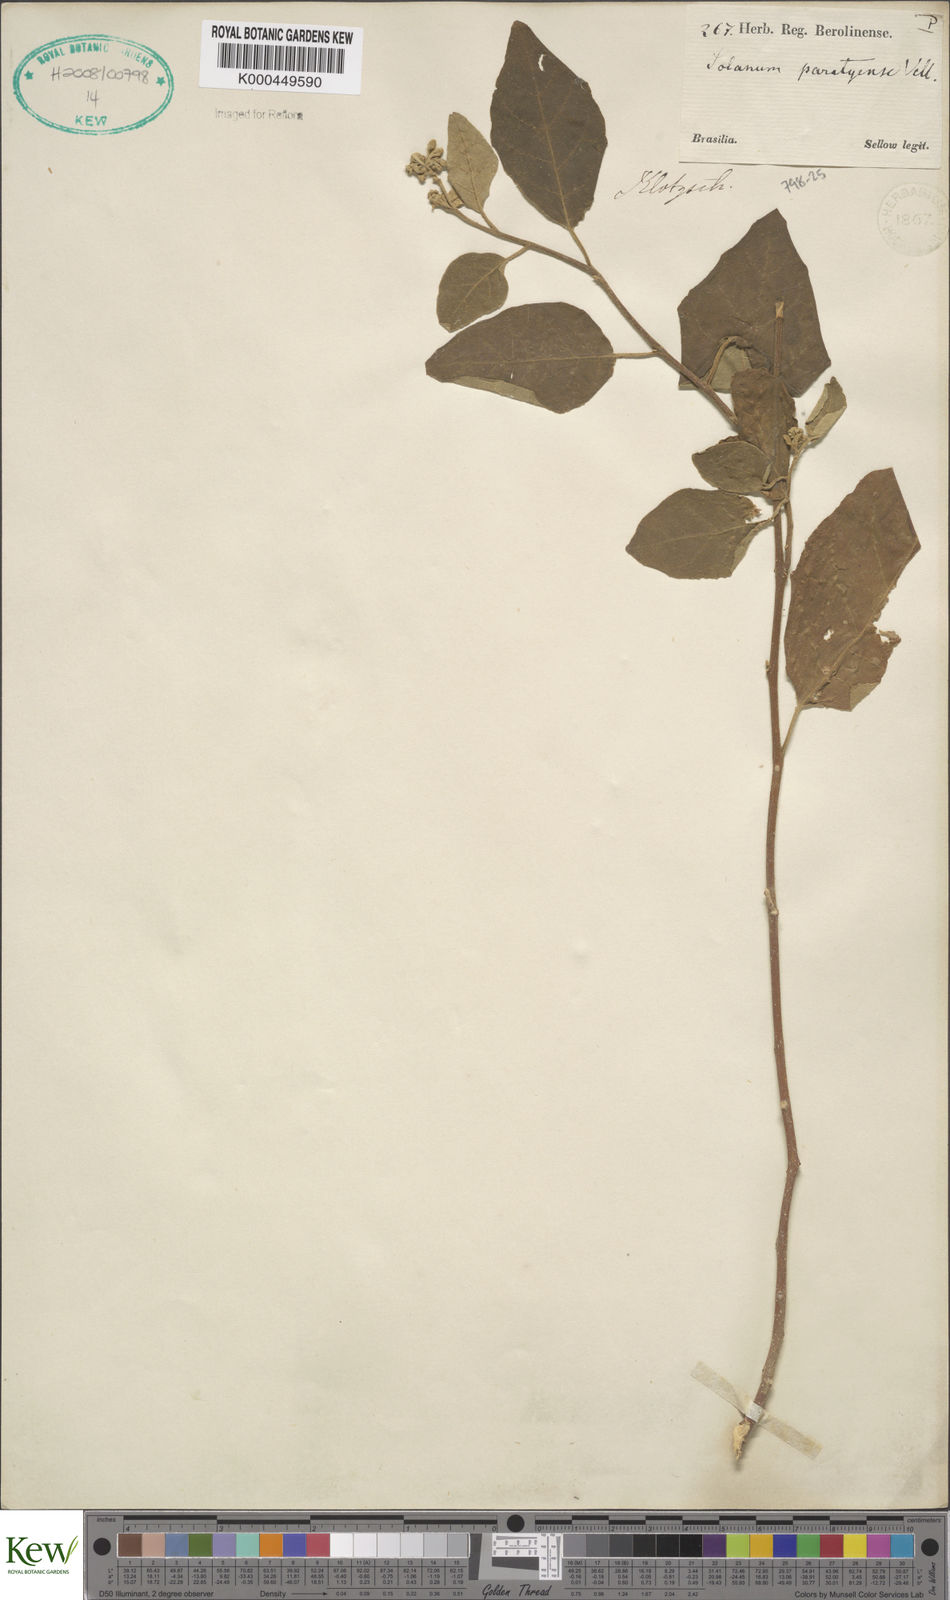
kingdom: Plantae
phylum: Tracheophyta
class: Magnoliopsida
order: Solanales
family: Solanaceae
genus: Solanum
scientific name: Solanum jussiaei
